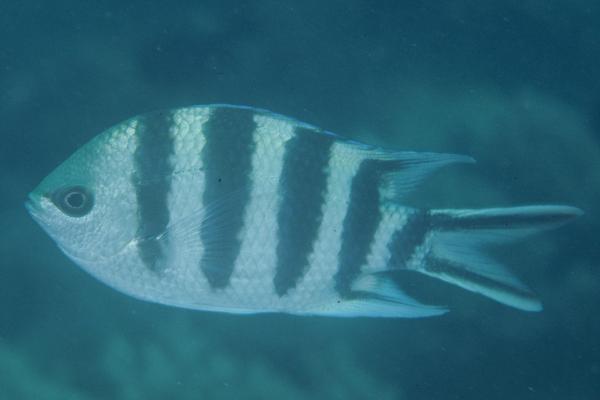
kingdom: Animalia
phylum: Chordata
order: Perciformes
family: Pomacentridae
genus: Abudefduf
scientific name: Abudefduf sexfasciatus
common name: Scissortail sergeant
